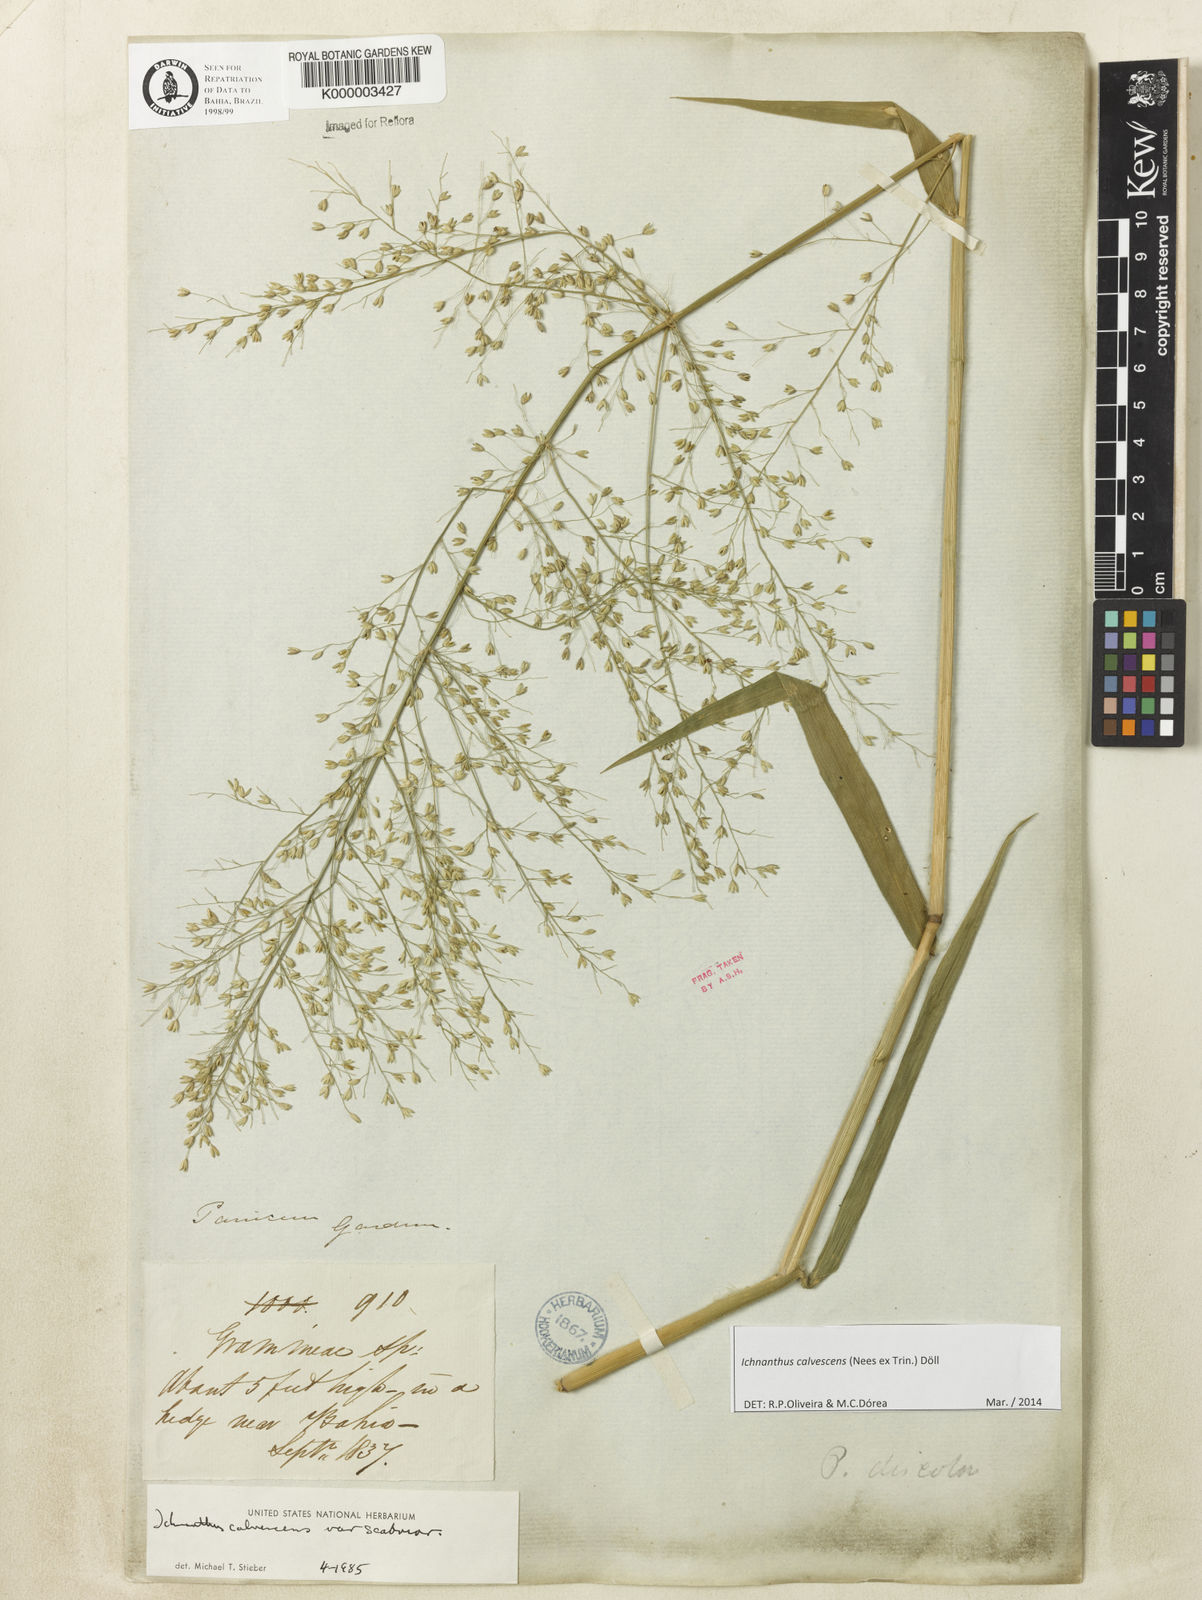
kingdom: Plantae
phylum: Tracheophyta
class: Liliopsida
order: Poales
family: Poaceae
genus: Ichnanthus
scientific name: Ichnanthus
